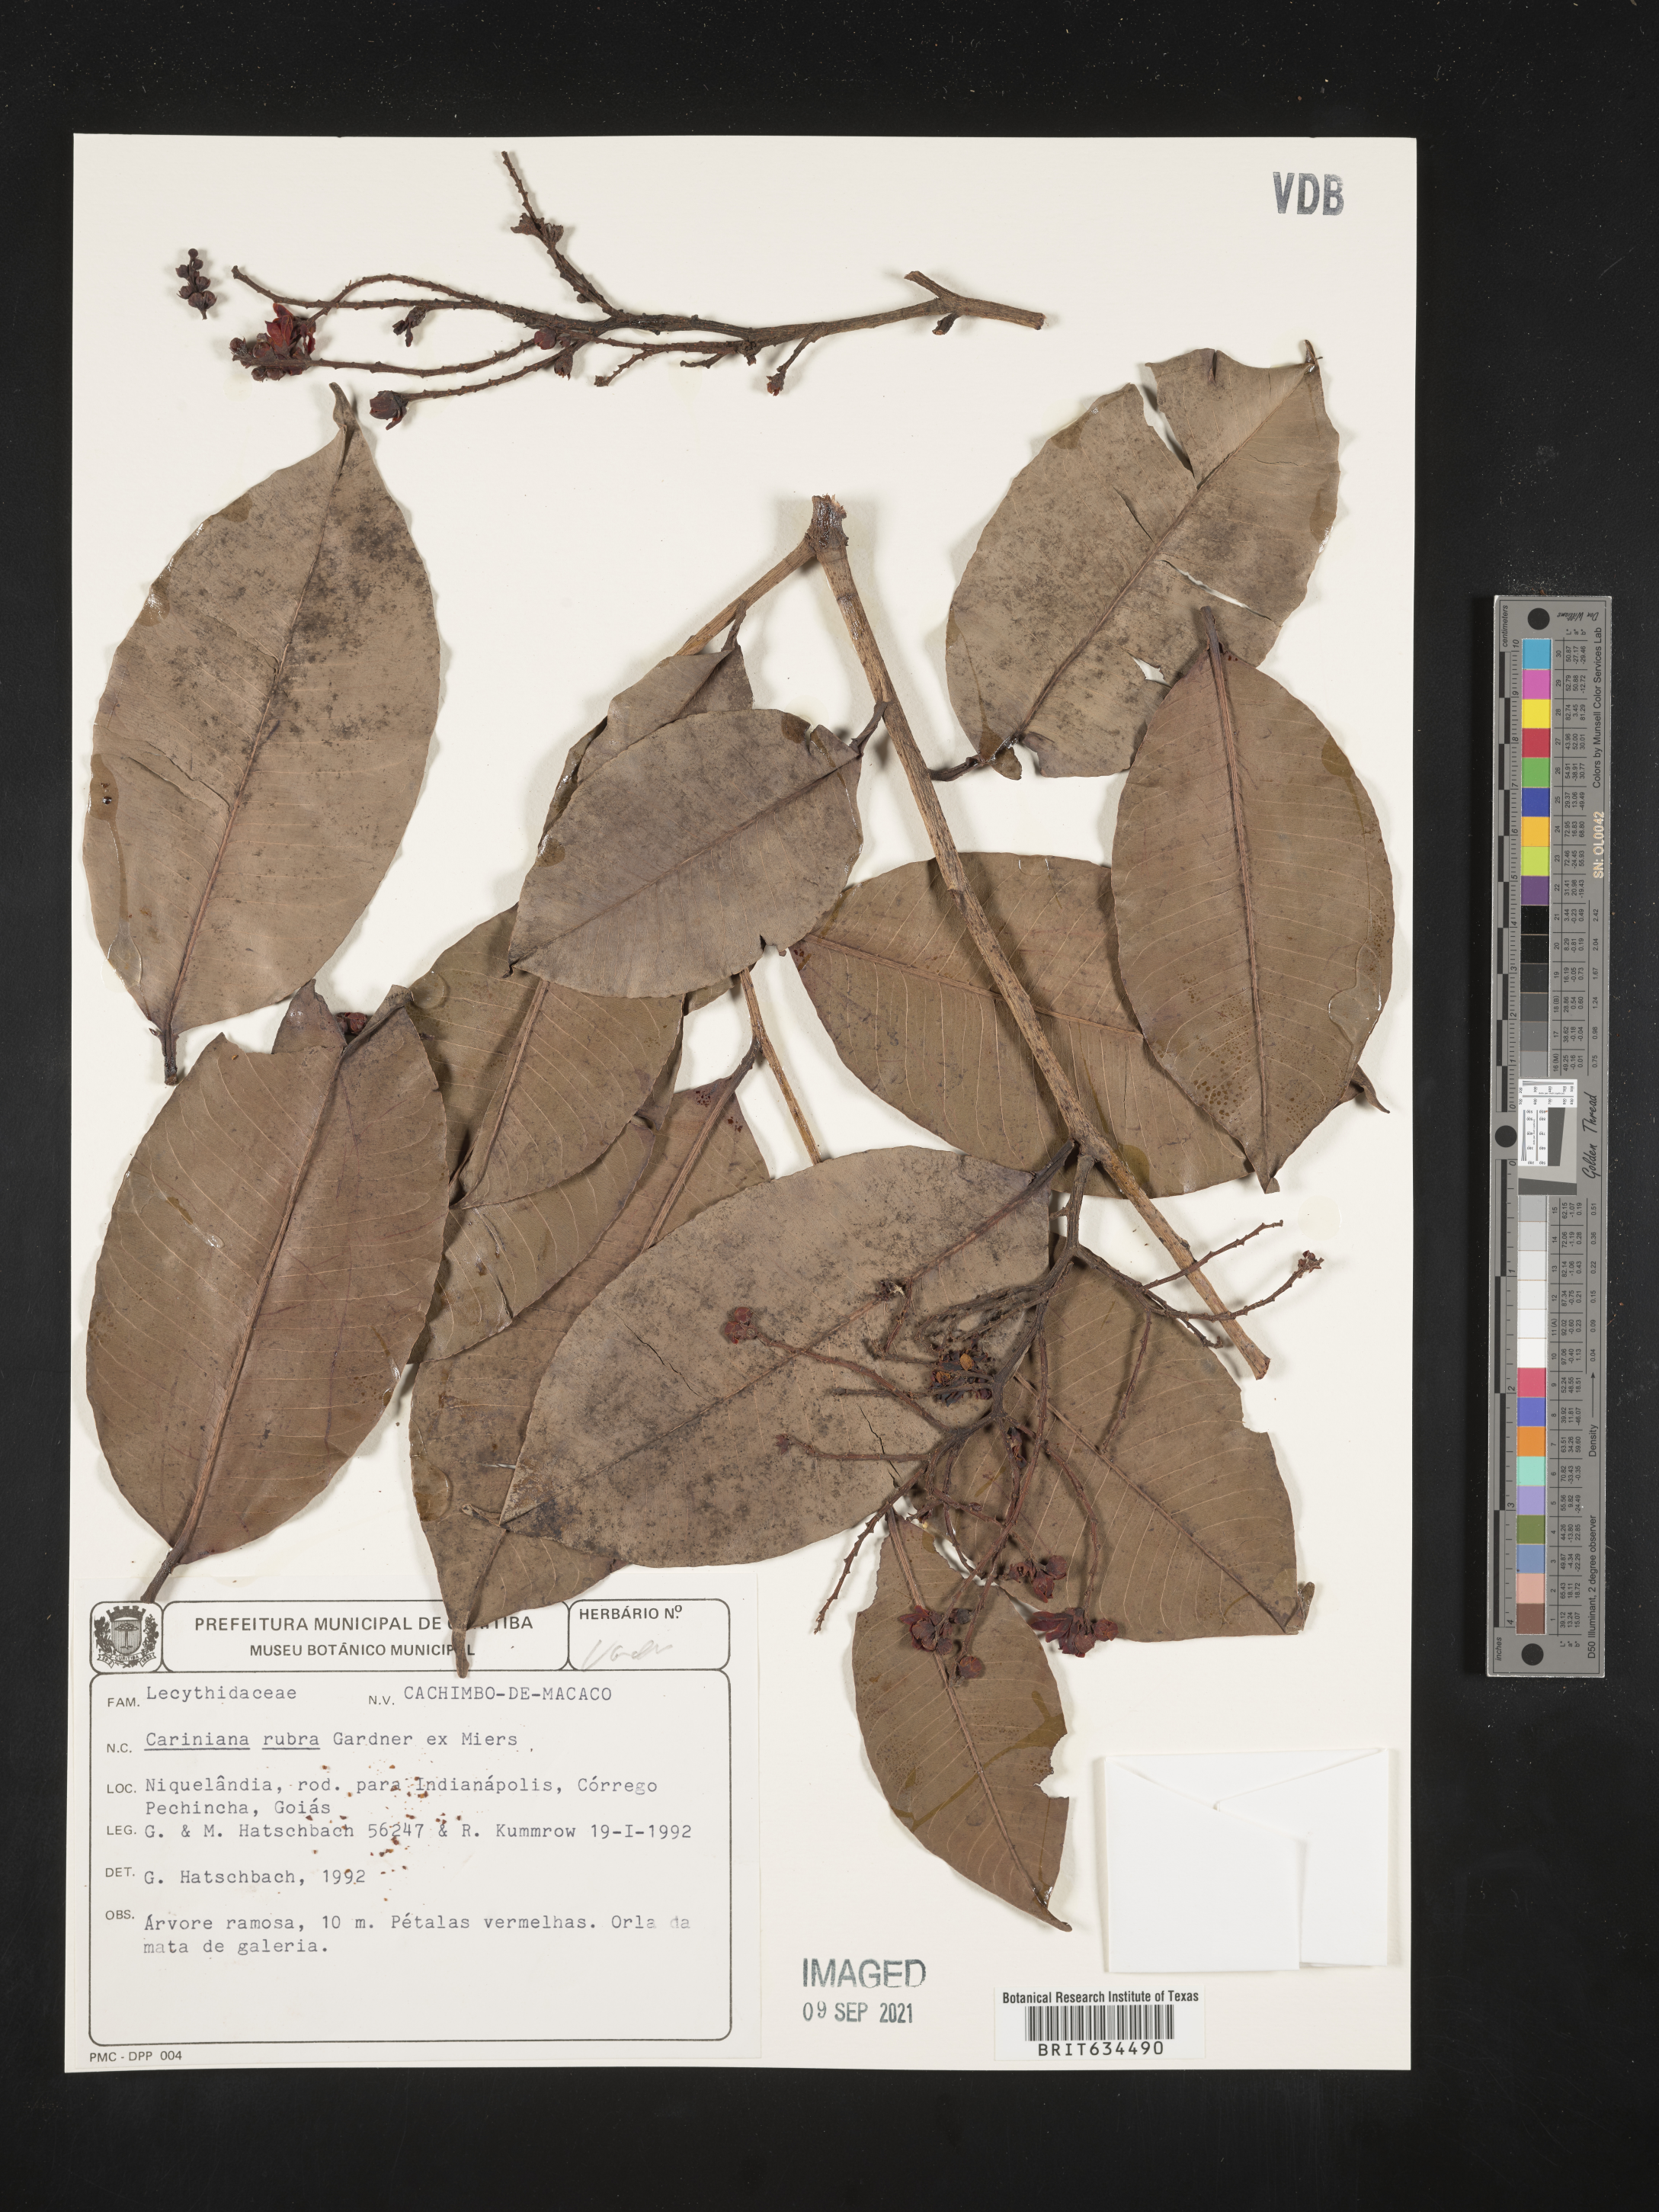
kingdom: Plantae
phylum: Tracheophyta
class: Magnoliopsida
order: Ericales
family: Lecythidaceae
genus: Cariniana
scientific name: Cariniana
